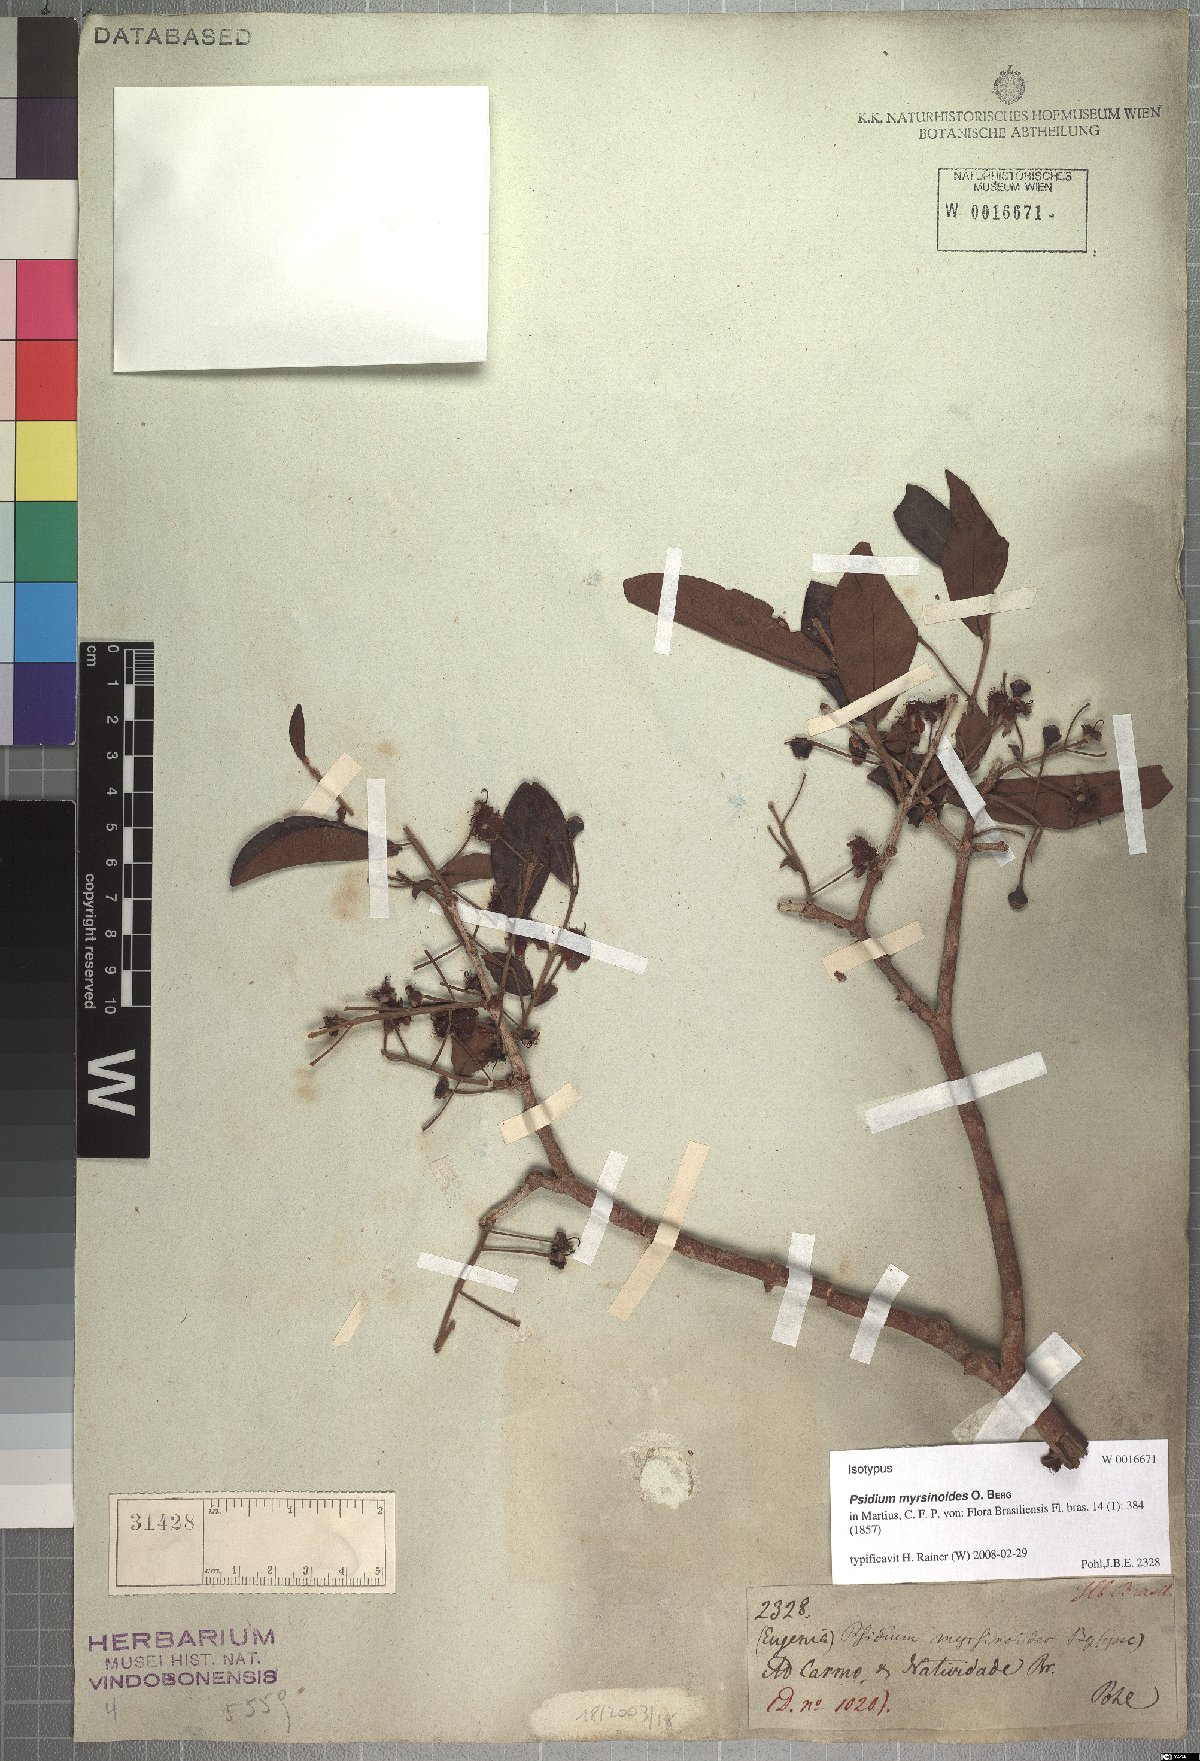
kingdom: Plantae
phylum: Tracheophyta
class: Magnoliopsida
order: Myrtales
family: Myrtaceae
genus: Psidium
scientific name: Psidium myrsinites
